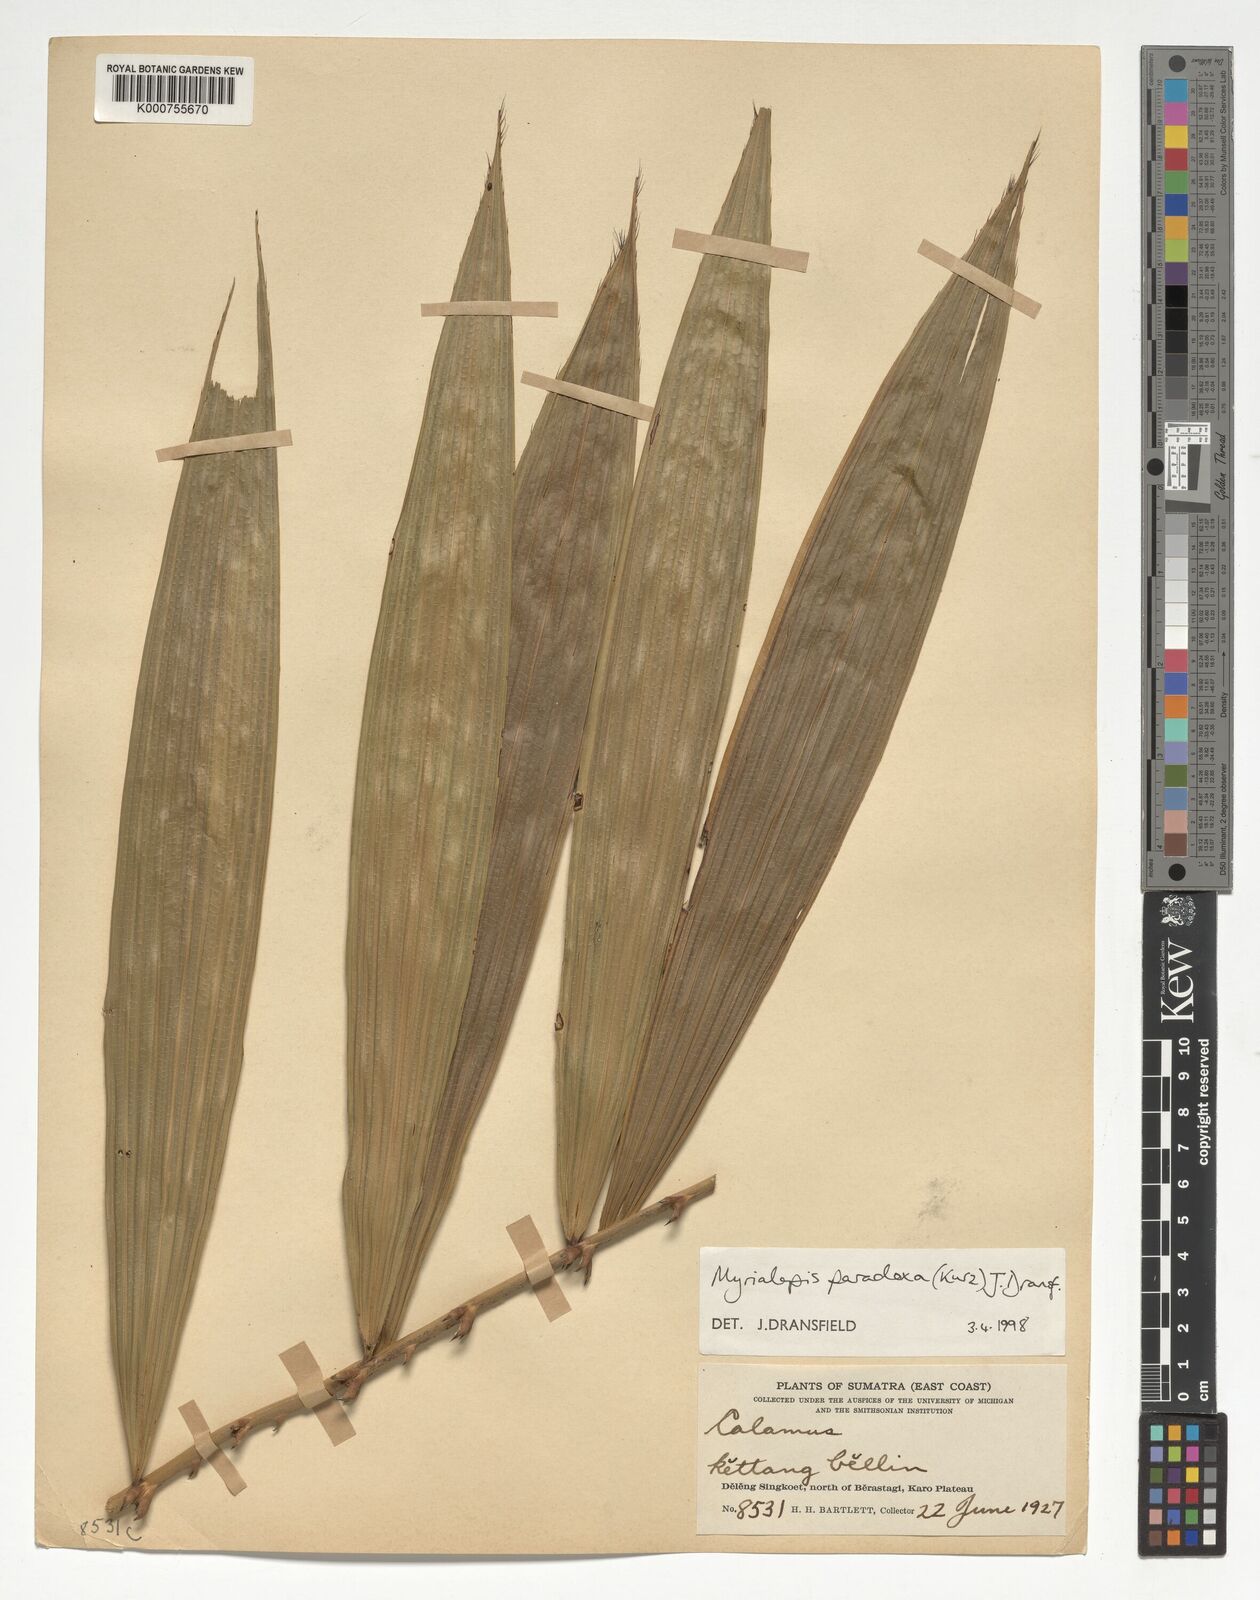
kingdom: Plantae
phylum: Tracheophyta
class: Liliopsida
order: Arecales
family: Arecaceae
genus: Myrialepis
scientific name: Myrialepis paradoxa
